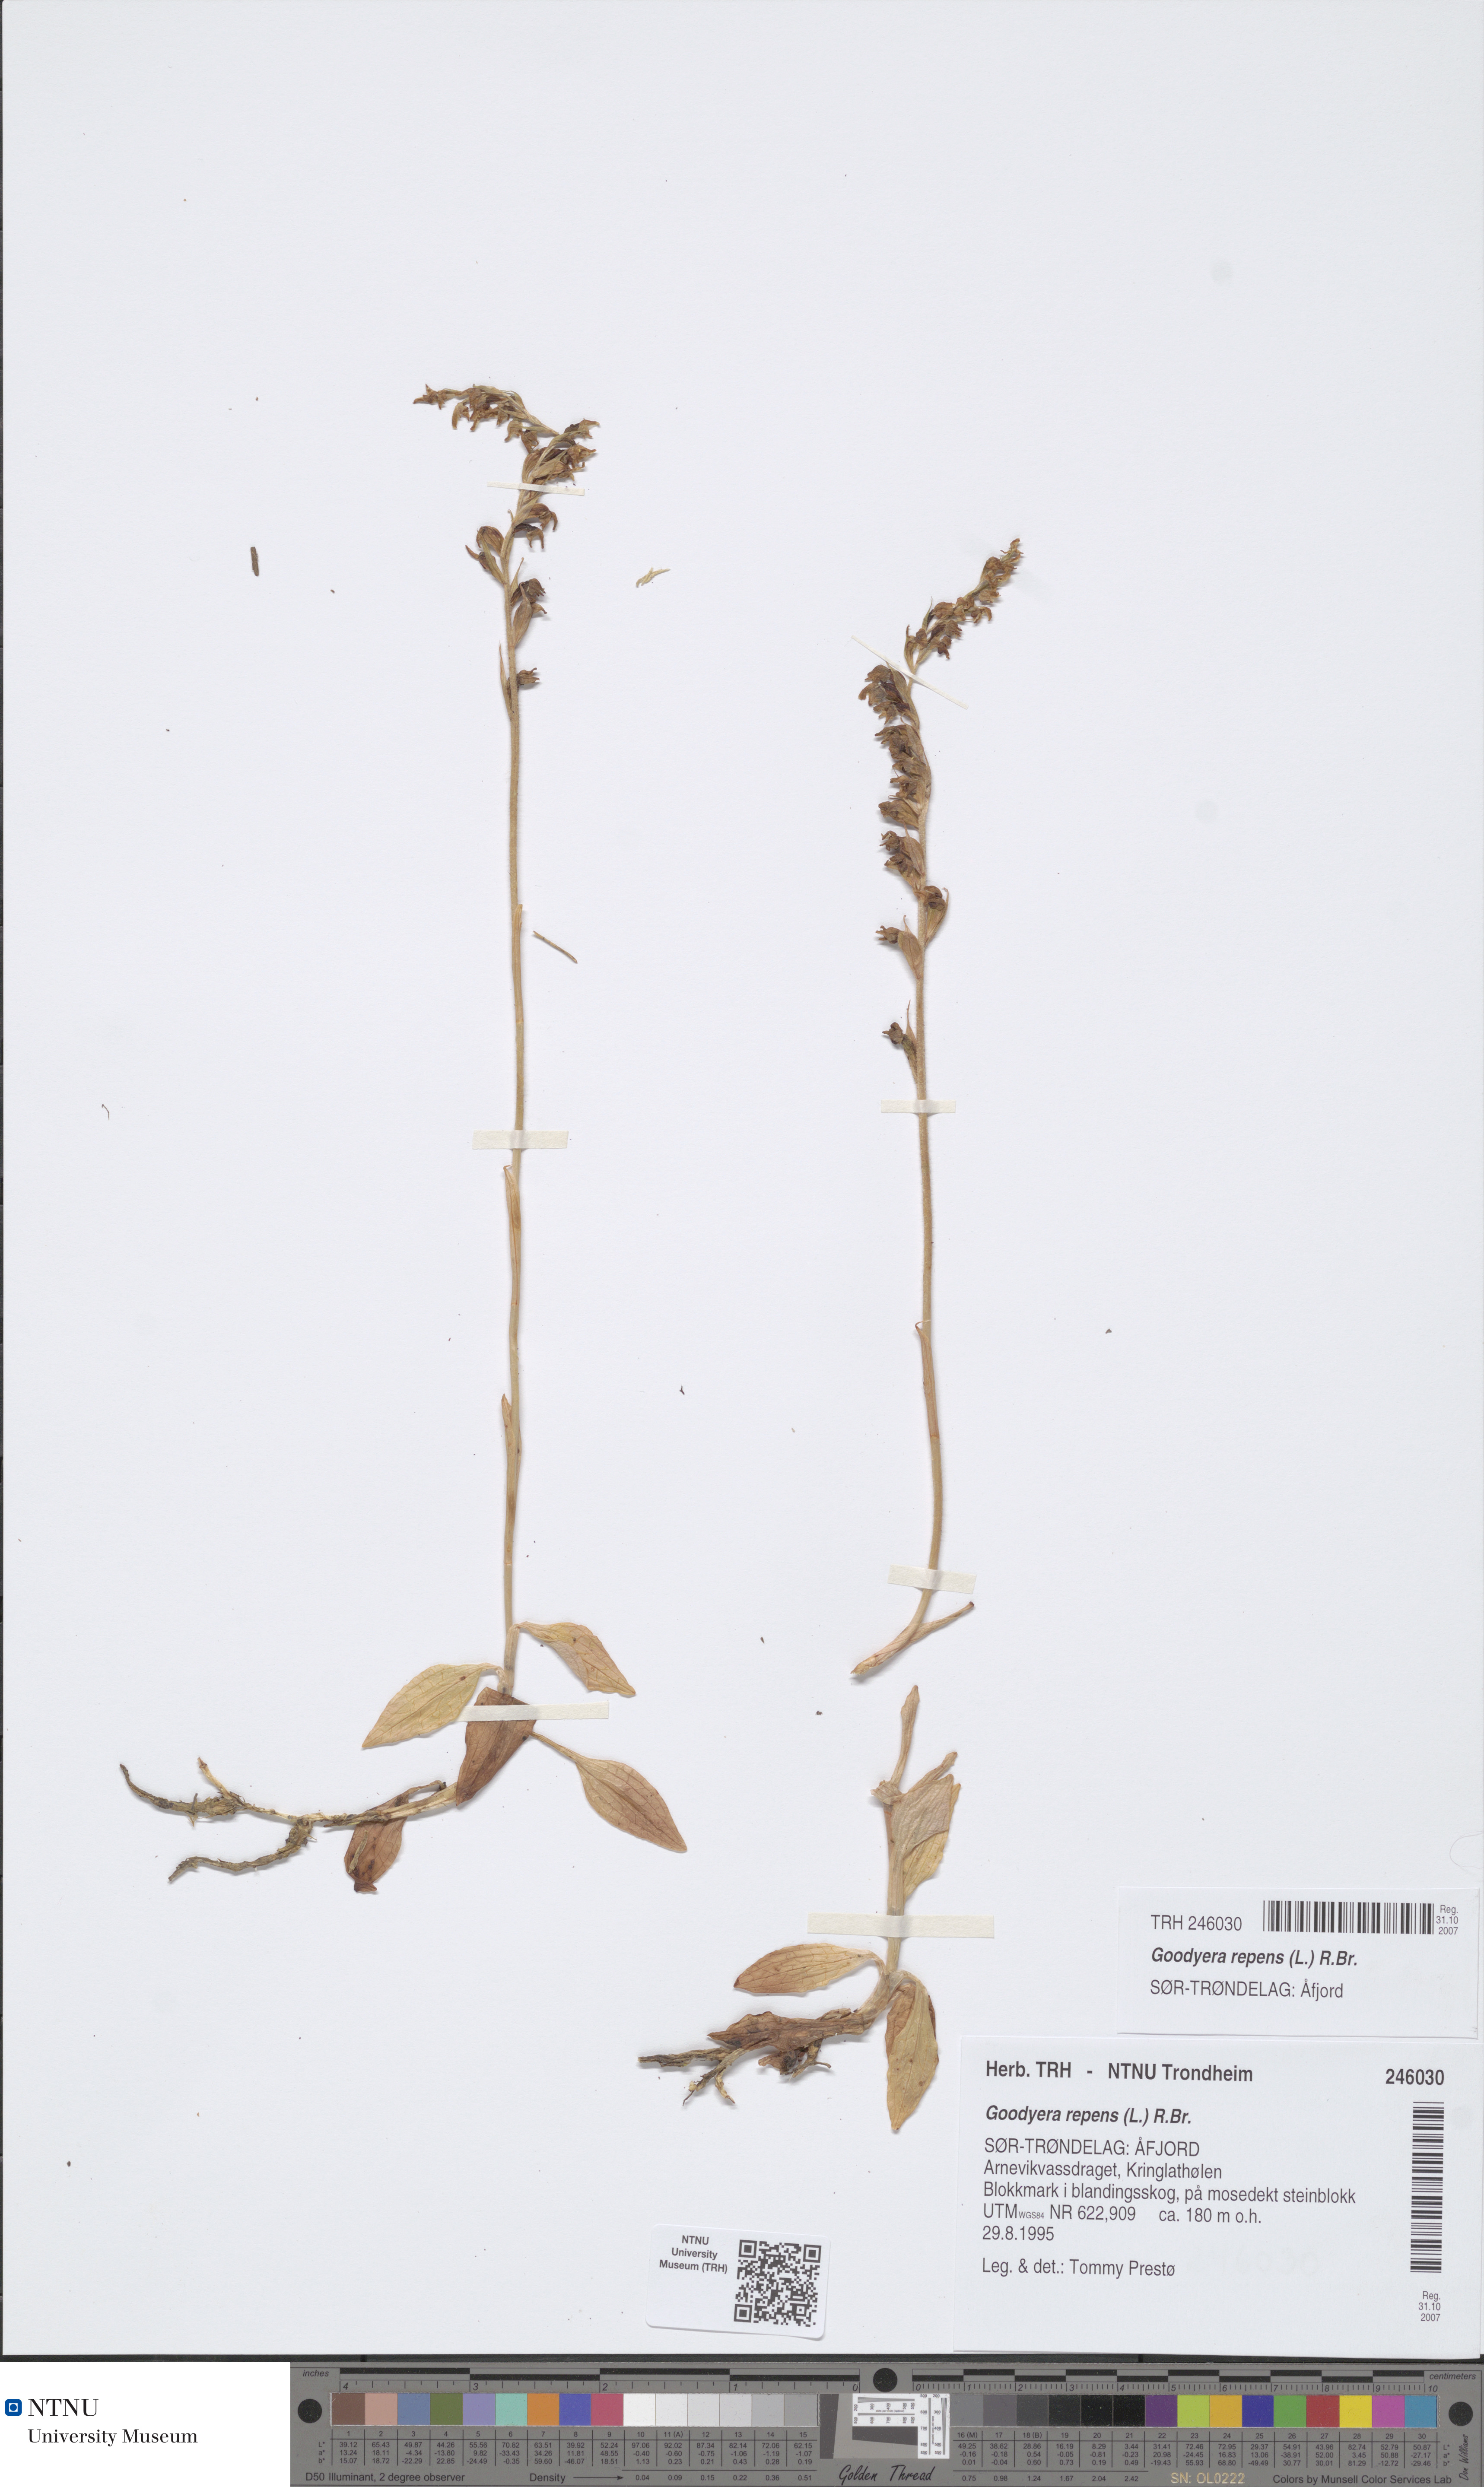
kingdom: Plantae
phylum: Tracheophyta
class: Liliopsida
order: Asparagales
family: Orchidaceae
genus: Goodyera
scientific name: Goodyera repens
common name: Creeping lady's-tresses
